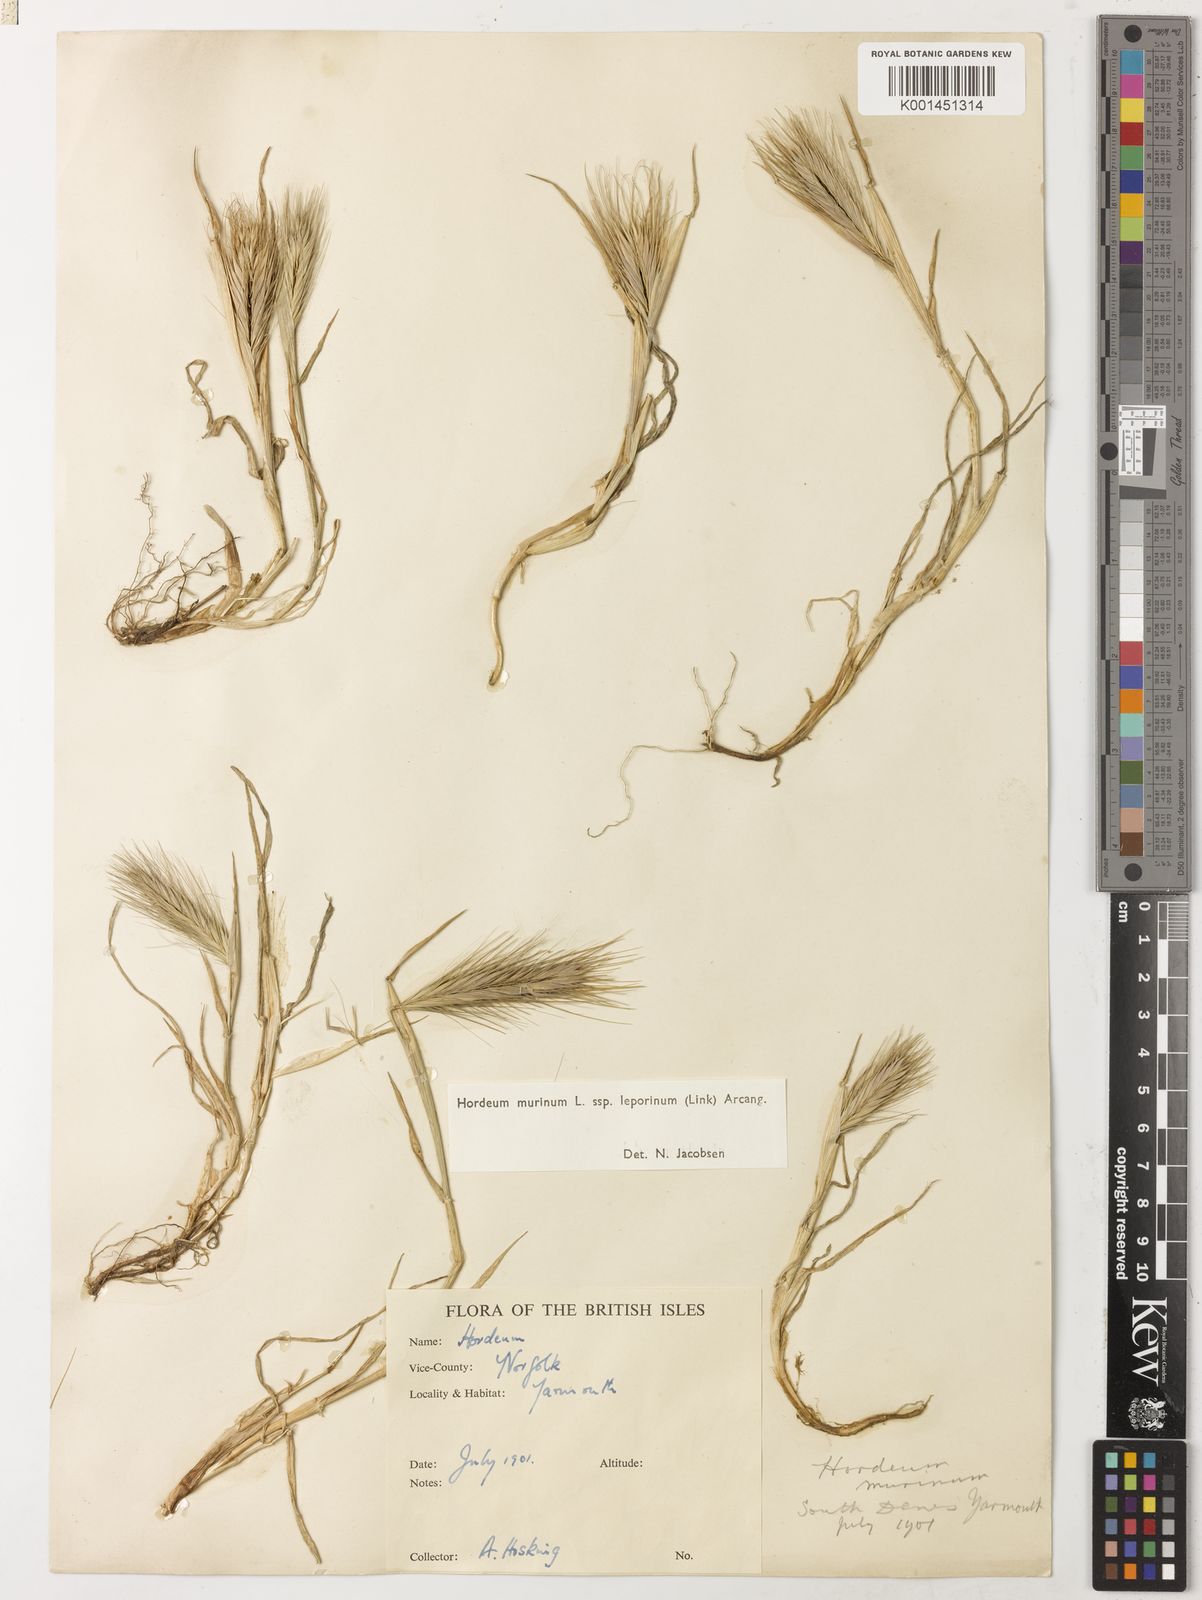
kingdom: Plantae
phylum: Tracheophyta
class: Liliopsida
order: Poales
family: Poaceae
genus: Hordeum
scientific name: Hordeum murinum
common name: Wall barley
